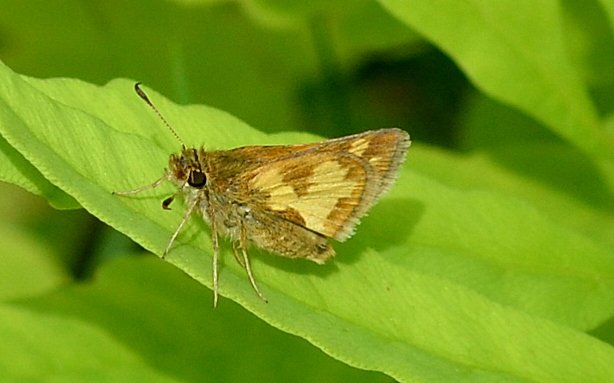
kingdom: Animalia
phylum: Arthropoda
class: Insecta
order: Lepidoptera
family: Hesperiidae
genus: Polites
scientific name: Polites coras
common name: Peck's Skipper
